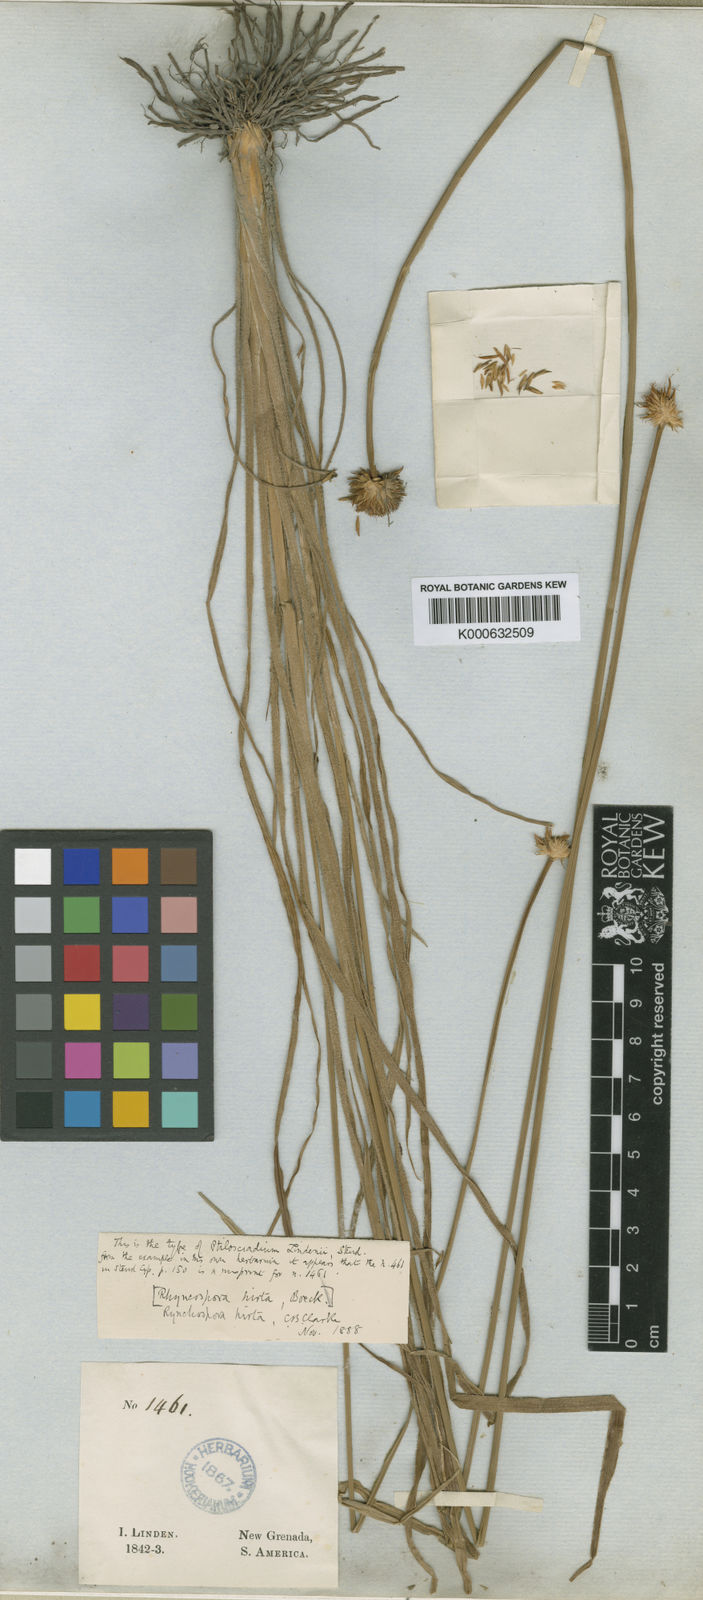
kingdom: Plantae
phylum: Tracheophyta
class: Liliopsida
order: Poales
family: Cyperaceae
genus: Rhynchospora
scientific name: Rhynchospora hirta
